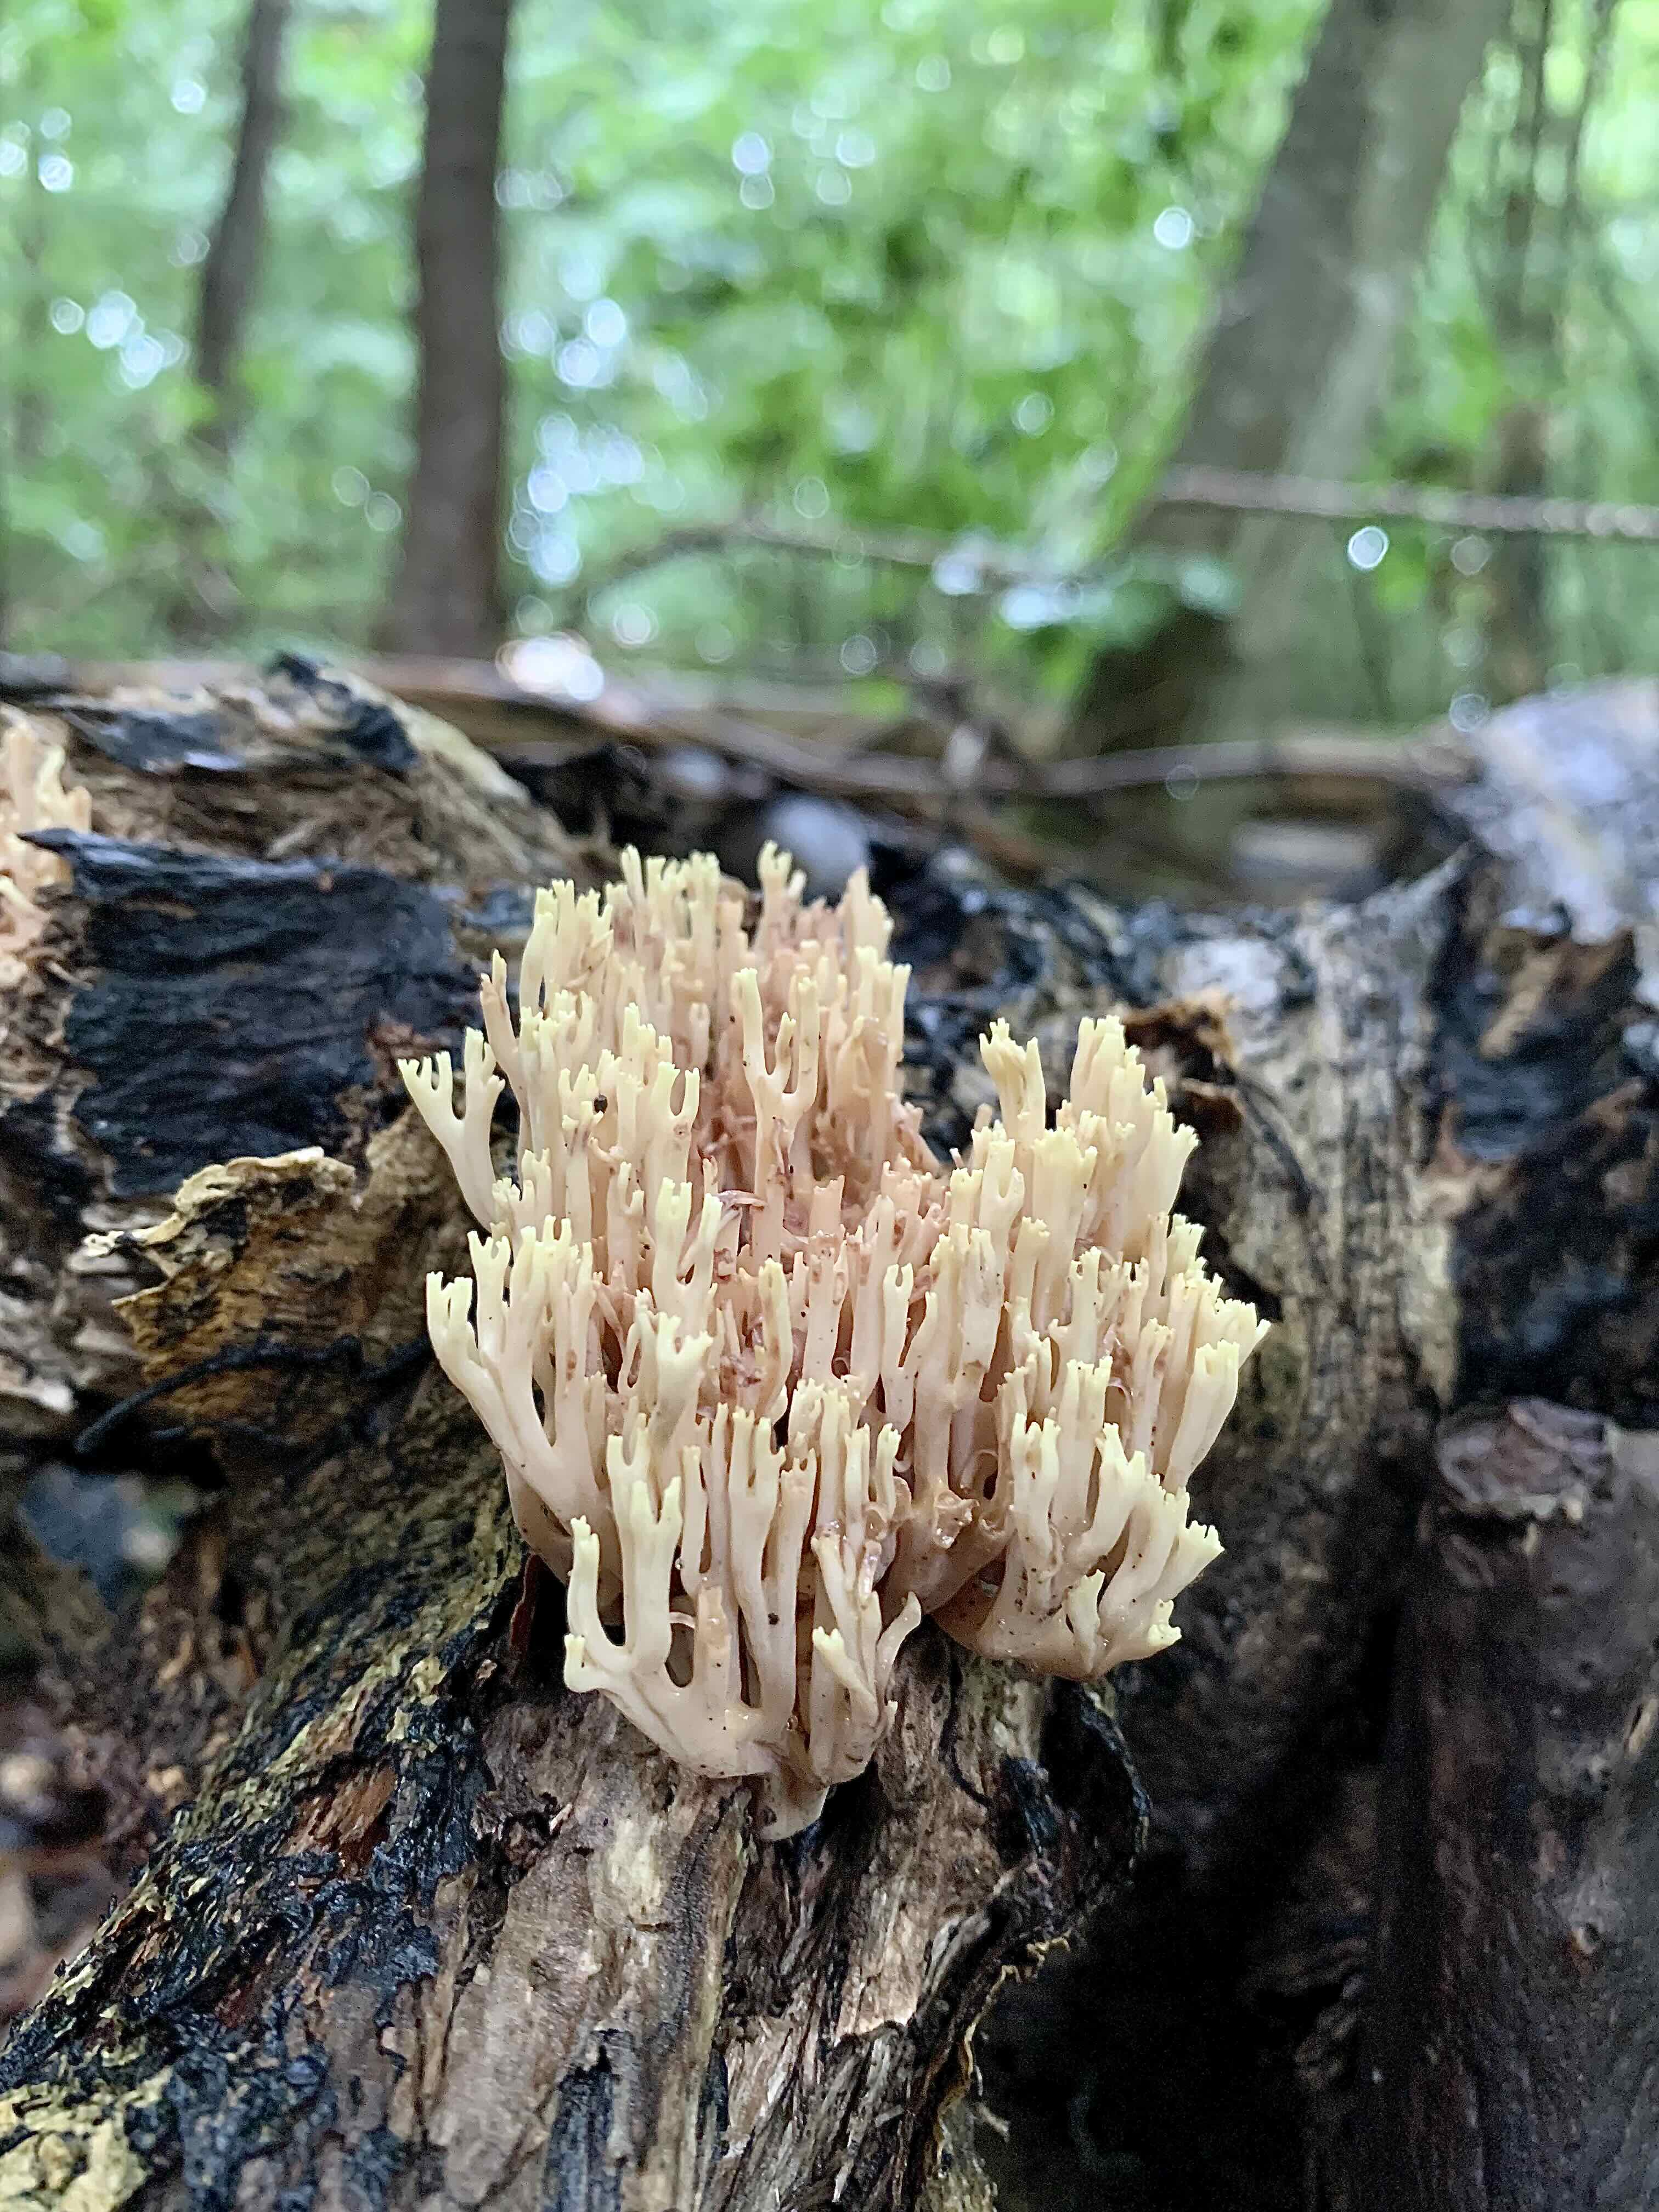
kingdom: Fungi
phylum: Basidiomycota
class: Agaricomycetes
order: Gomphales
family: Gomphaceae
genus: Ramaria
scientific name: Ramaria stricta
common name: rank koralsvamp
